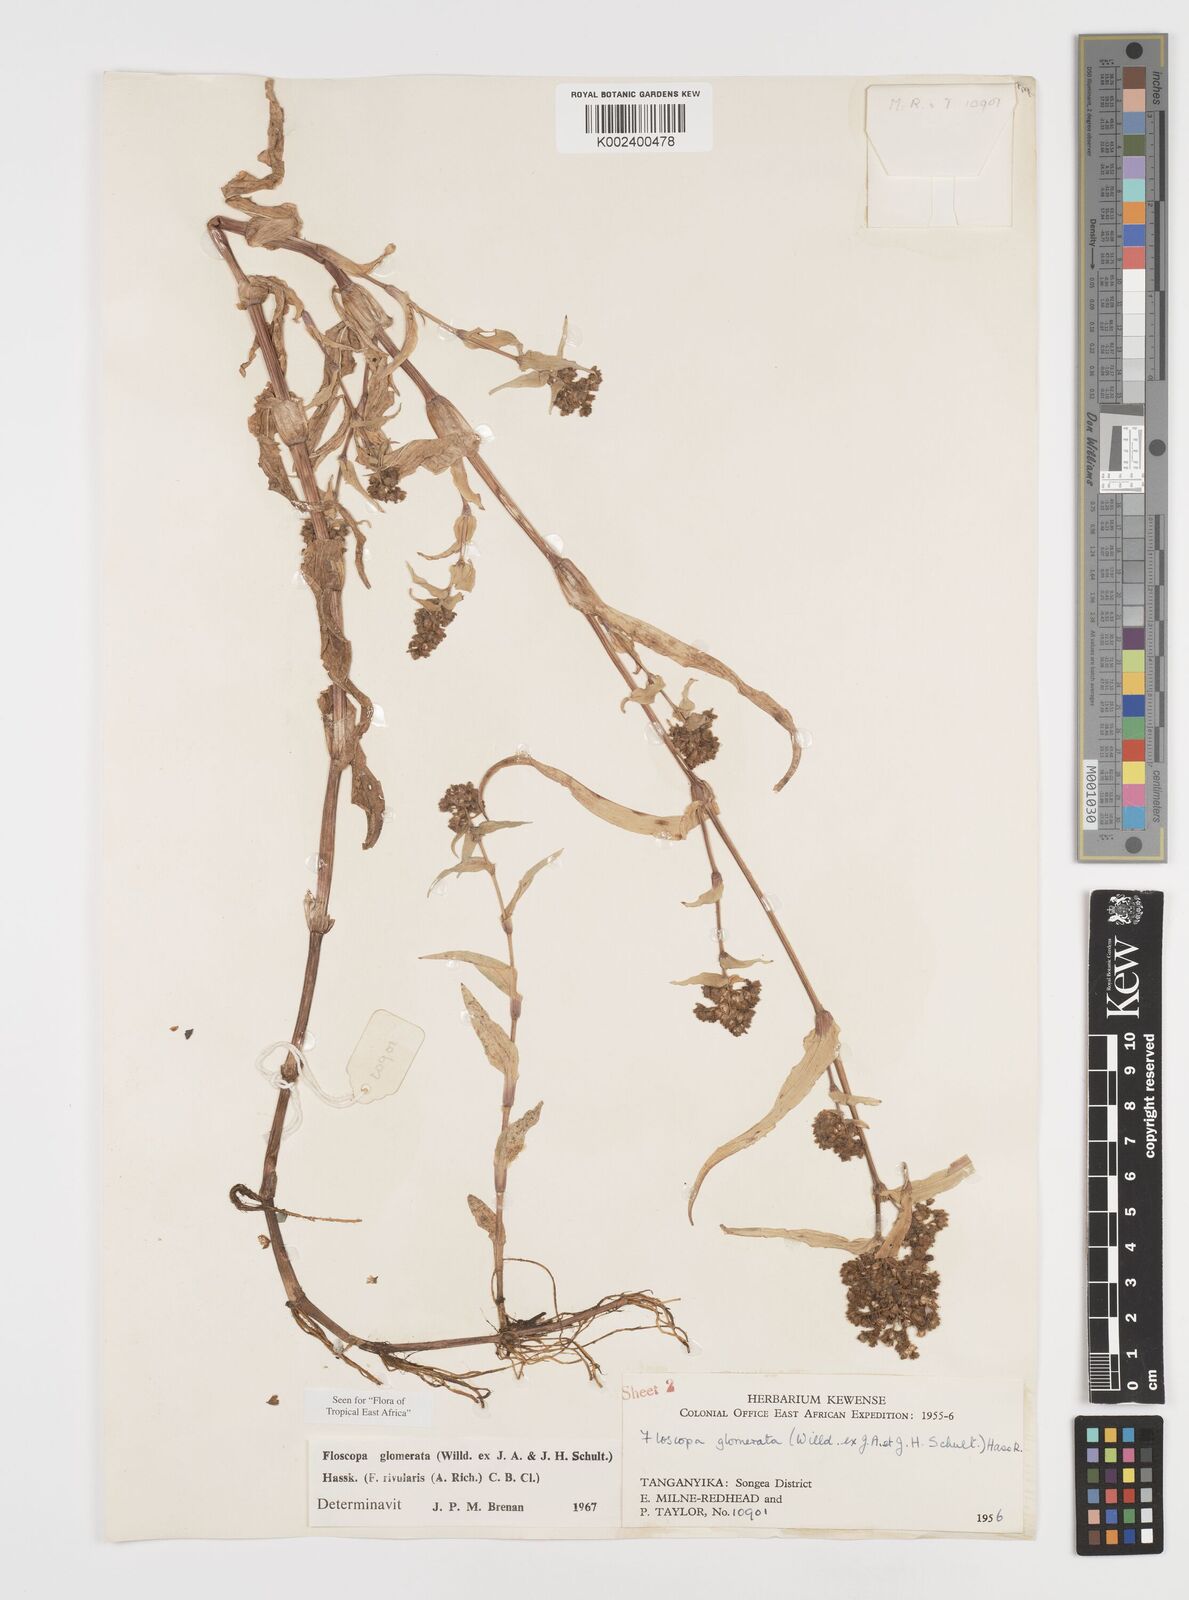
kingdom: Plantae
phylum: Tracheophyta
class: Liliopsida
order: Commelinales
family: Commelinaceae
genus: Floscopa
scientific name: Floscopa glomerata
